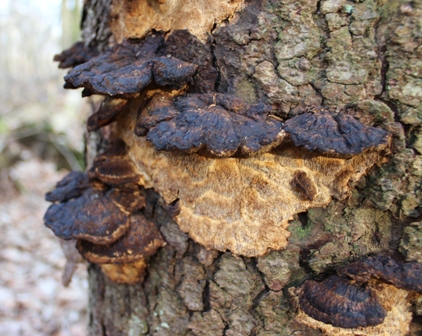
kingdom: Fungi
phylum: Basidiomycota
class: Agaricomycetes
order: Polyporales
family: Ischnodermataceae
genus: Ischnoderma
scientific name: Ischnoderma benzoinum
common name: gran-tjæreporesvamp
